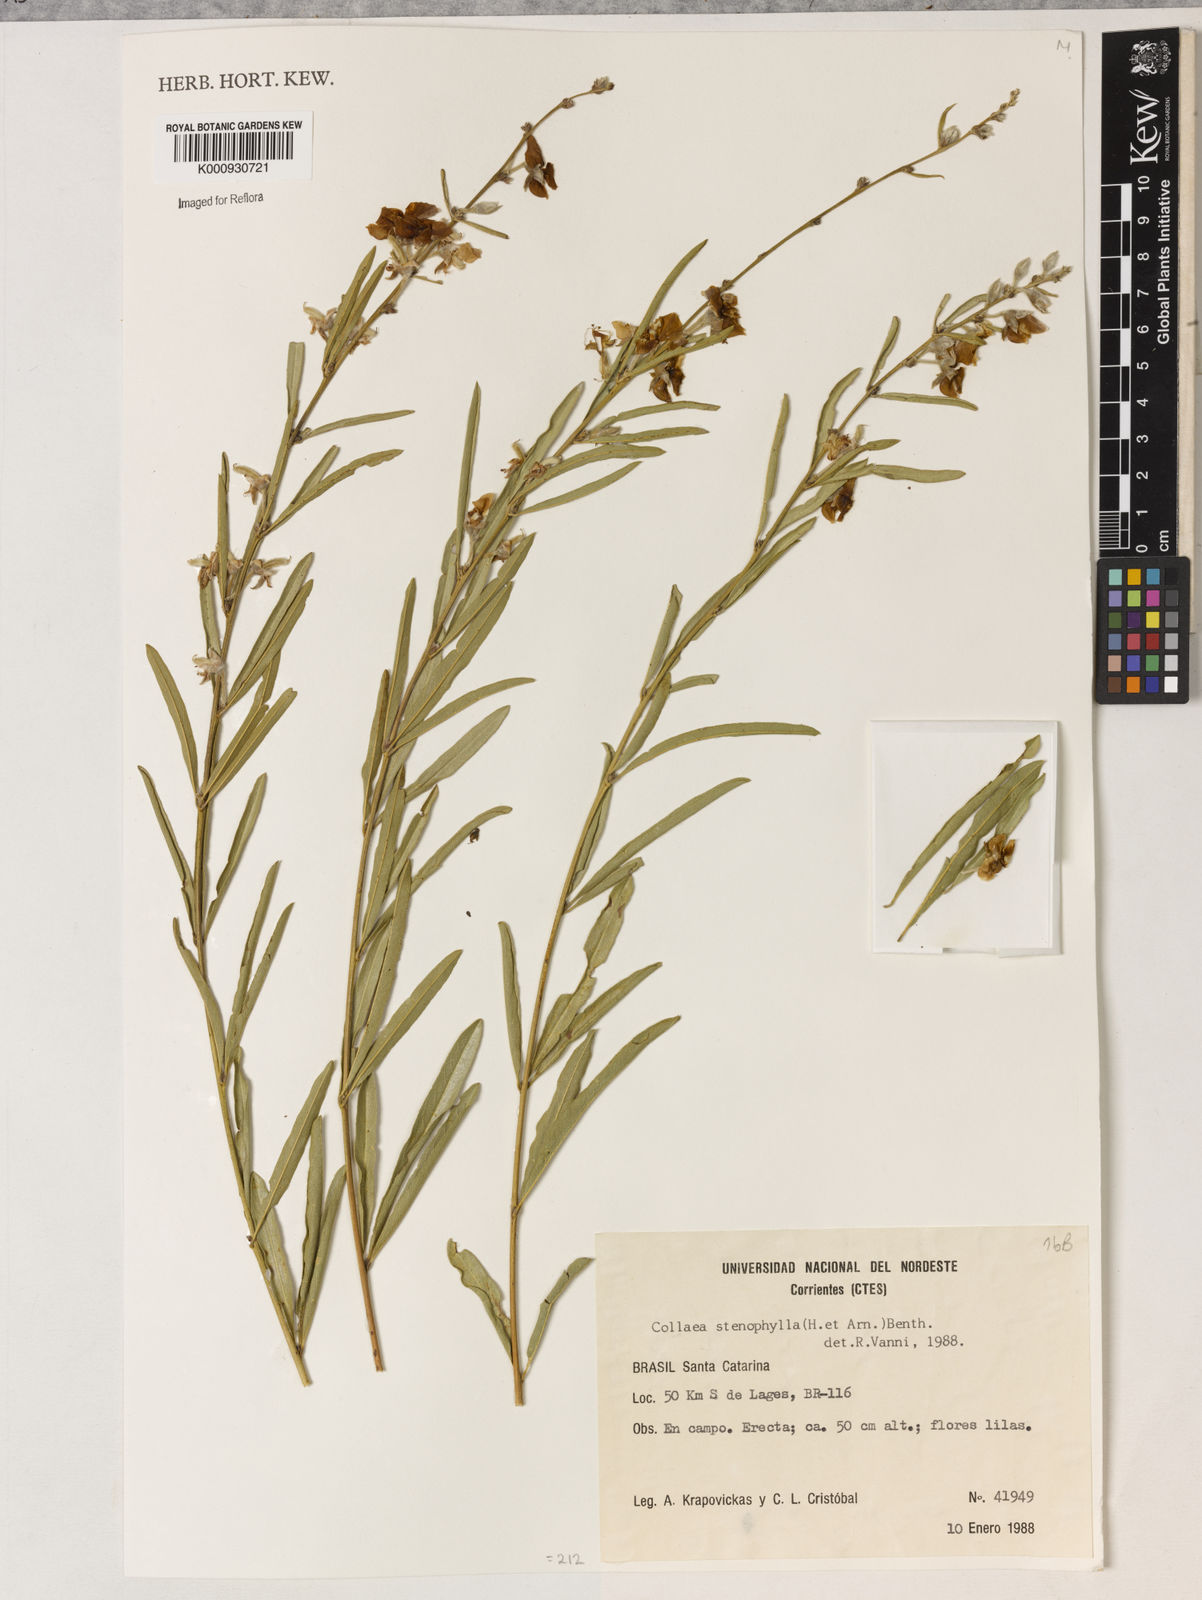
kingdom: Plantae
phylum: Tracheophyta
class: Liliopsida
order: Asparagales
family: Orchidaceae
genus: Pelexia
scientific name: Pelexia
